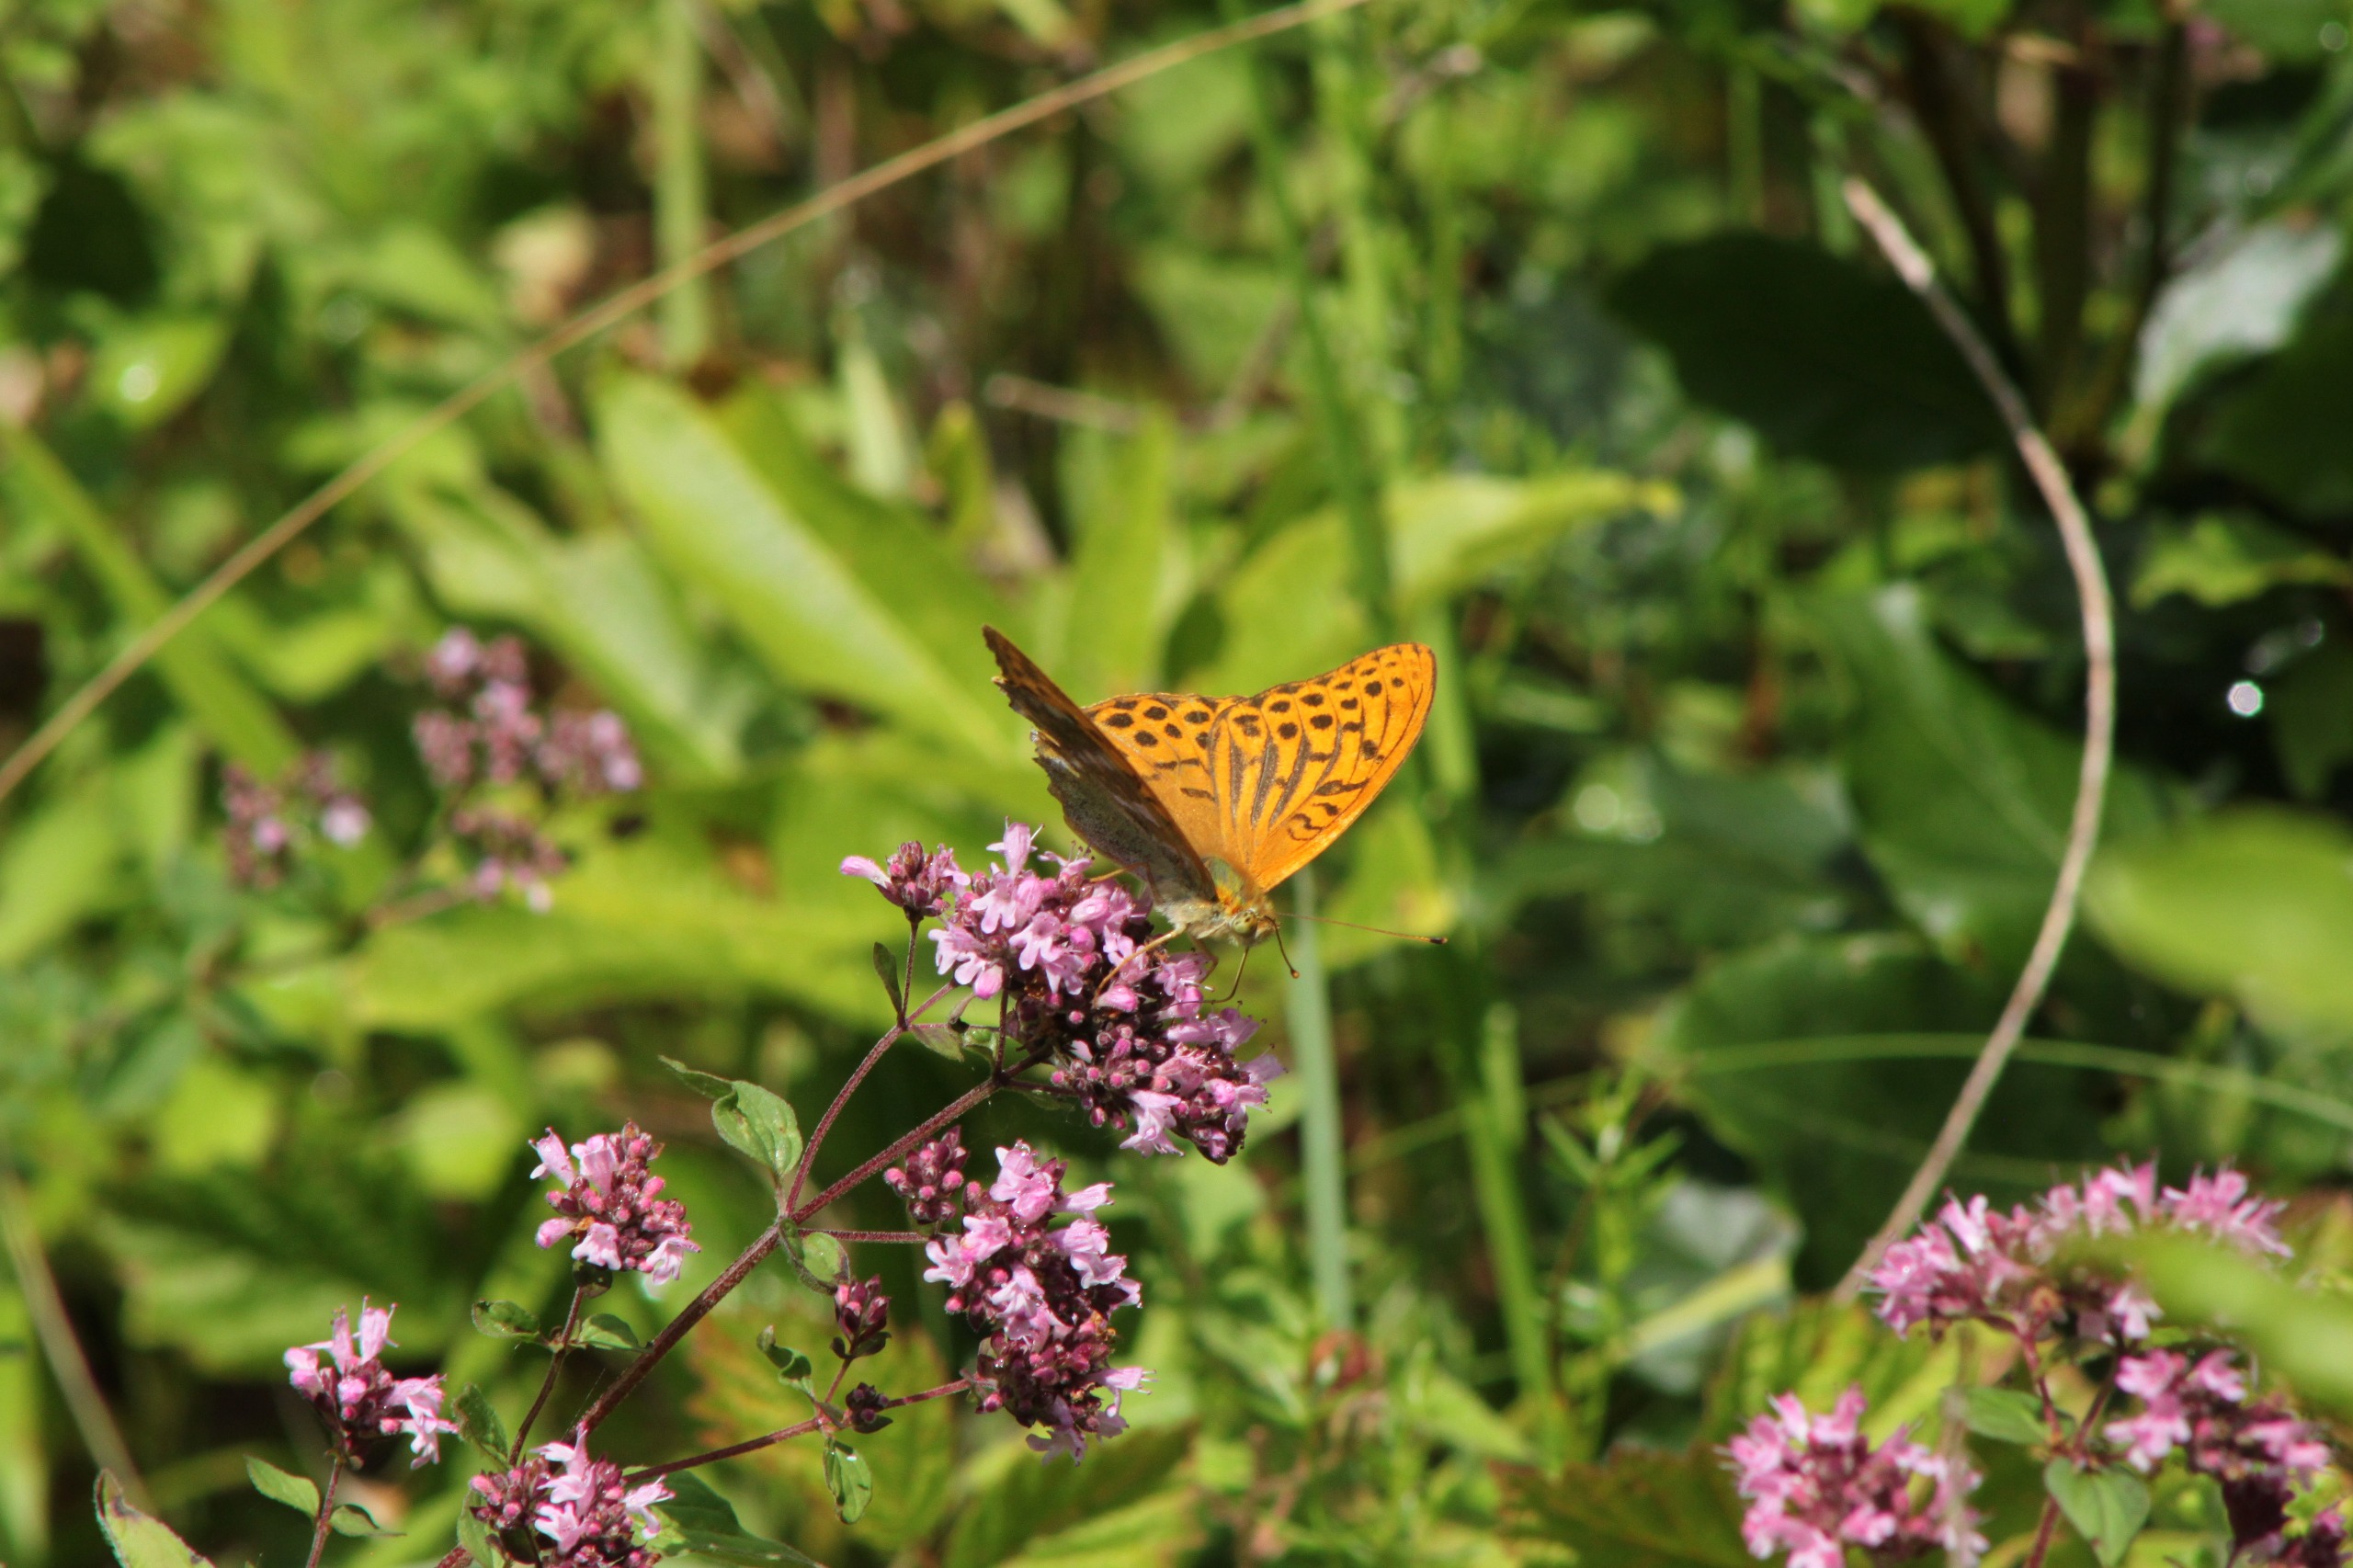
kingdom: Animalia
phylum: Arthropoda
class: Insecta
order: Lepidoptera
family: Nymphalidae
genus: Argynnis
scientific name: Argynnis paphia
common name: Kejserkåbe
